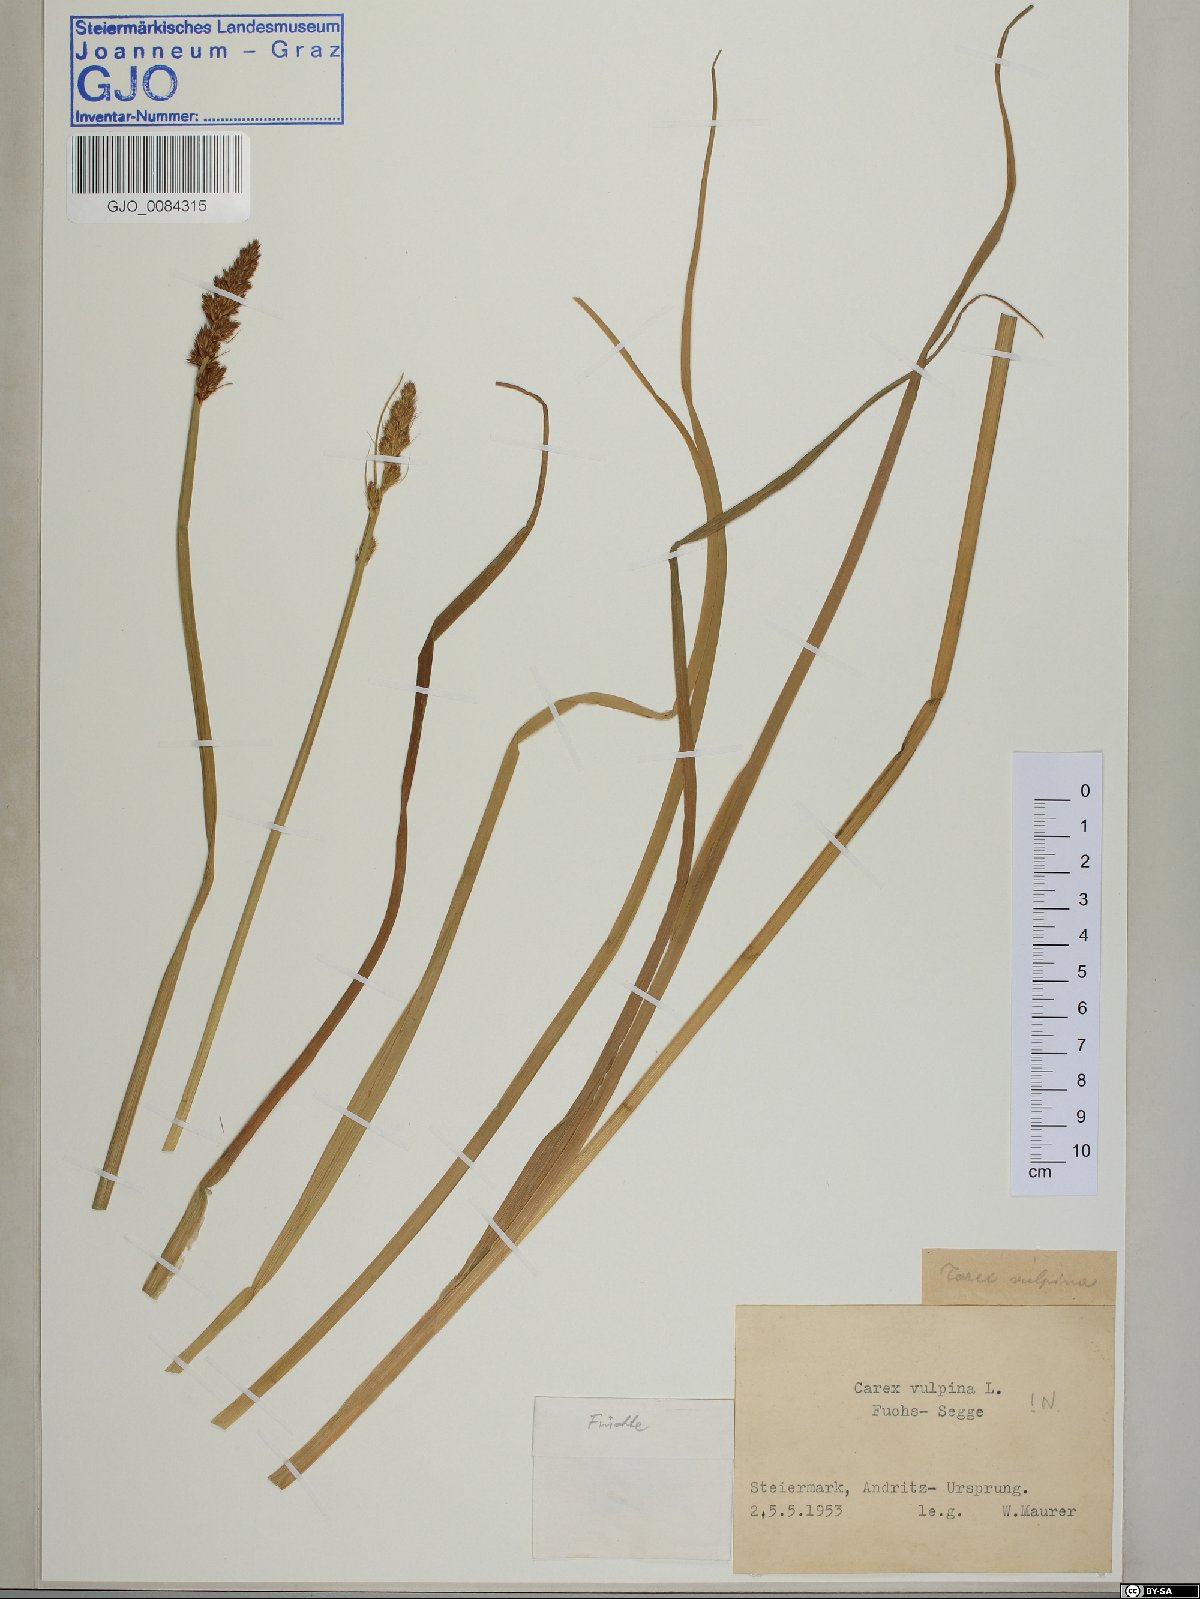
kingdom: Plantae
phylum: Tracheophyta
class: Liliopsida
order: Poales
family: Cyperaceae
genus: Carex
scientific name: Carex vulpina
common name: True fox-sedge
